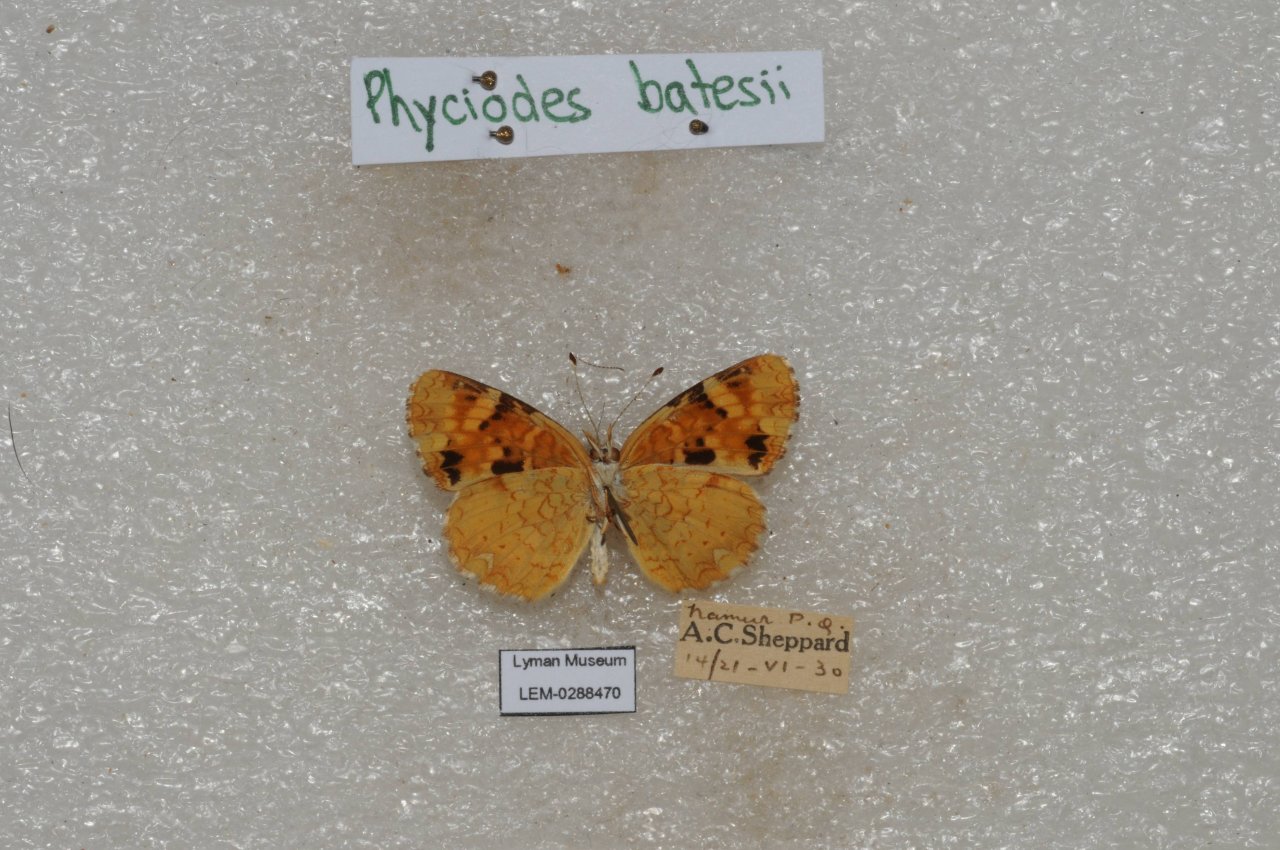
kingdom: Animalia
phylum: Arthropoda
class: Insecta
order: Lepidoptera
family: Nymphalidae
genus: Phyciodes
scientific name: Phyciodes batesii
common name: Tawny Crescent
